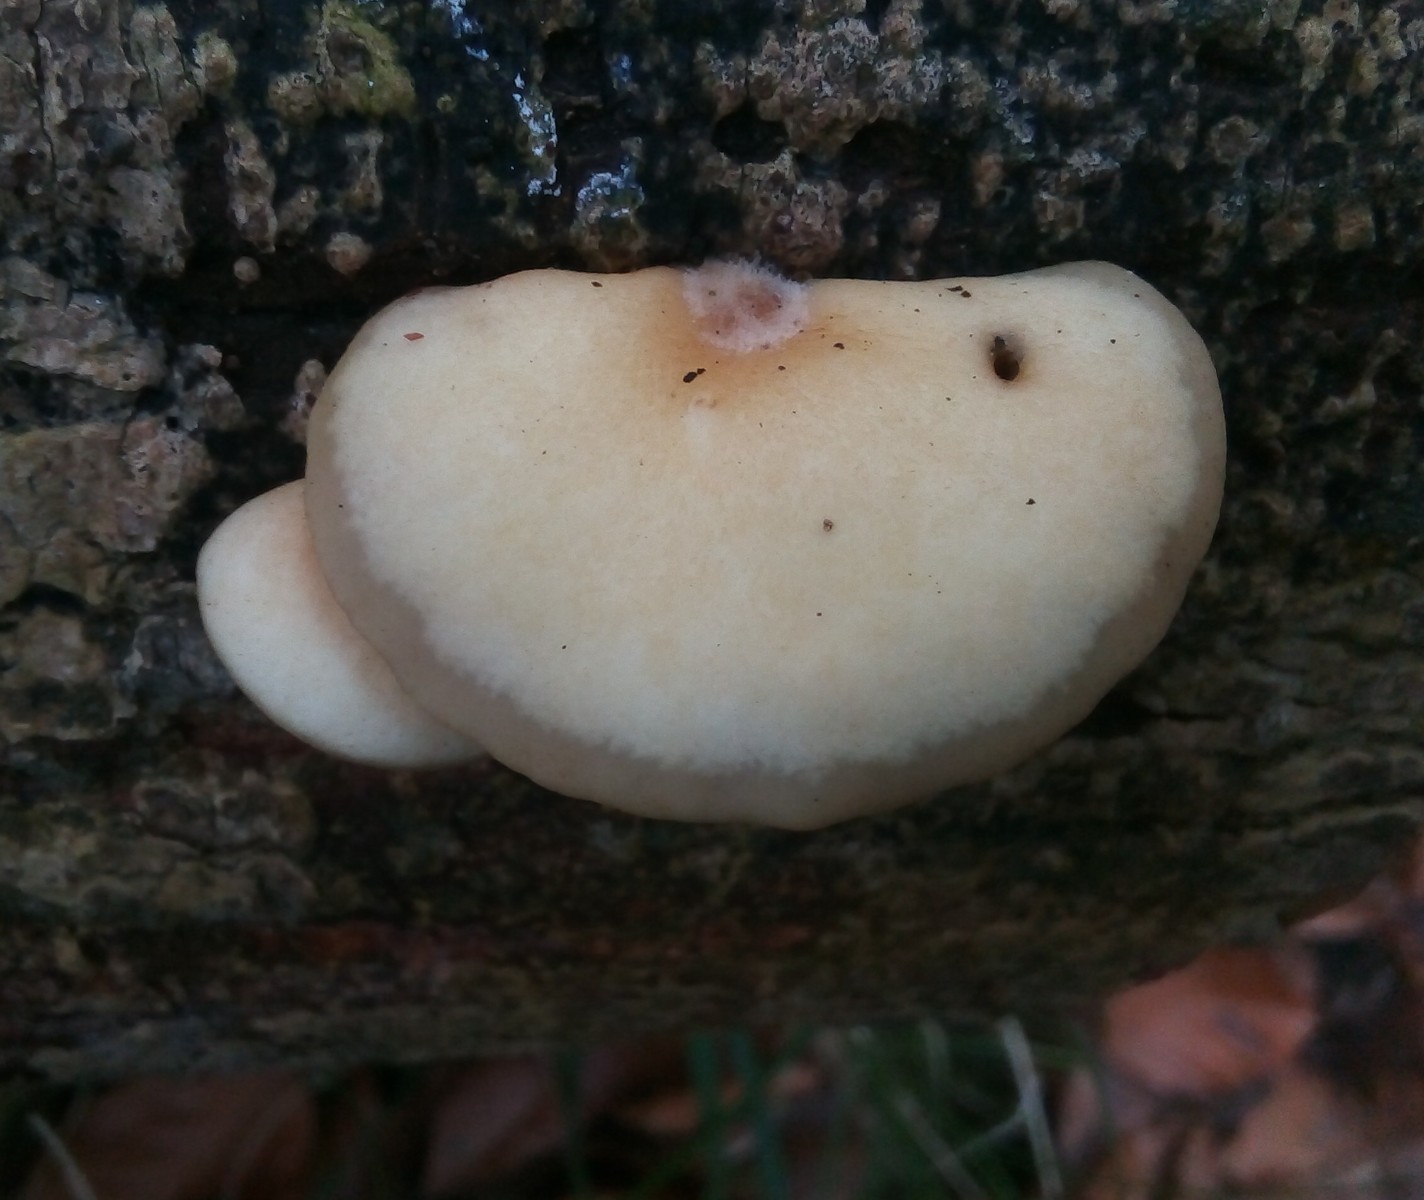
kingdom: Fungi
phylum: Basidiomycota
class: Agaricomycetes
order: Agaricales
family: Crepidotaceae
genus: Crepidotus
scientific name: Crepidotus mollis
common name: blød muslingesvamp
